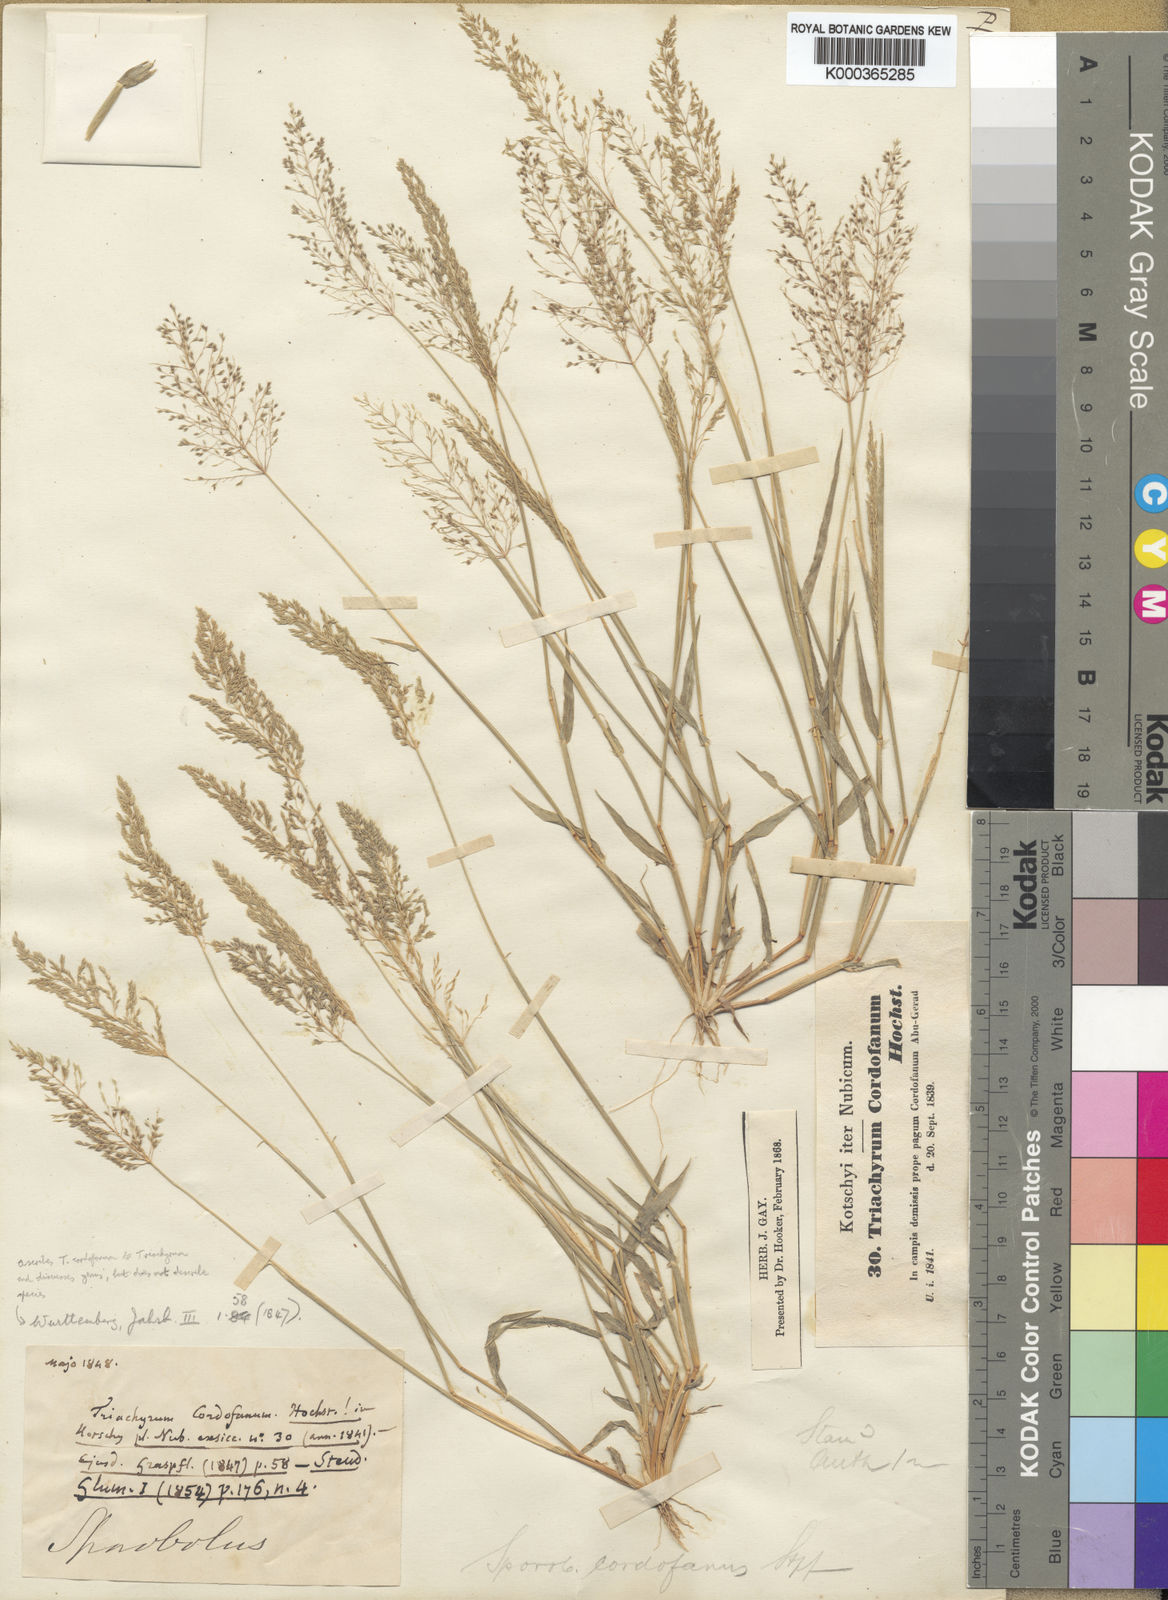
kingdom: Plantae
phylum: Tracheophyta
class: Liliopsida
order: Poales
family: Poaceae
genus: Sporobolus
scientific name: Sporobolus cordofanus
